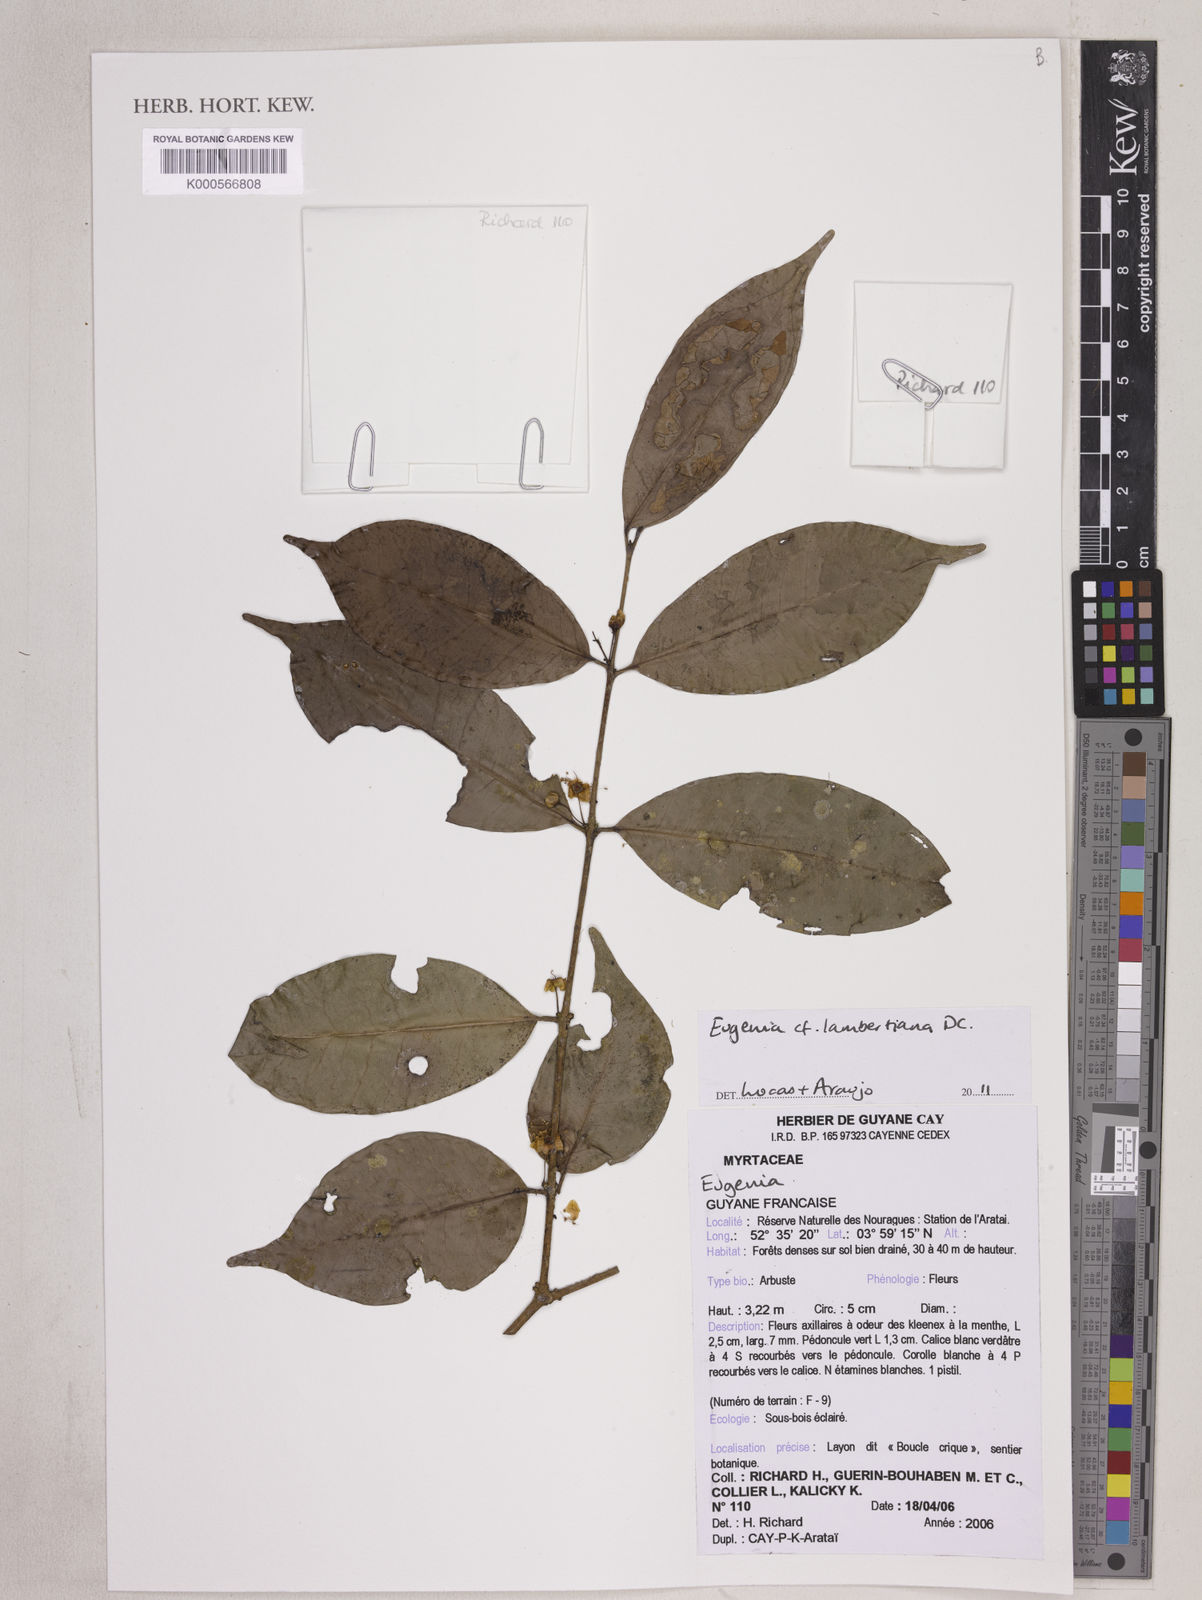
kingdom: Plantae
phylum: Tracheophyta
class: Magnoliopsida
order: Myrtales
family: Myrtaceae
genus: Eugenia
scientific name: Eugenia lambertiana
